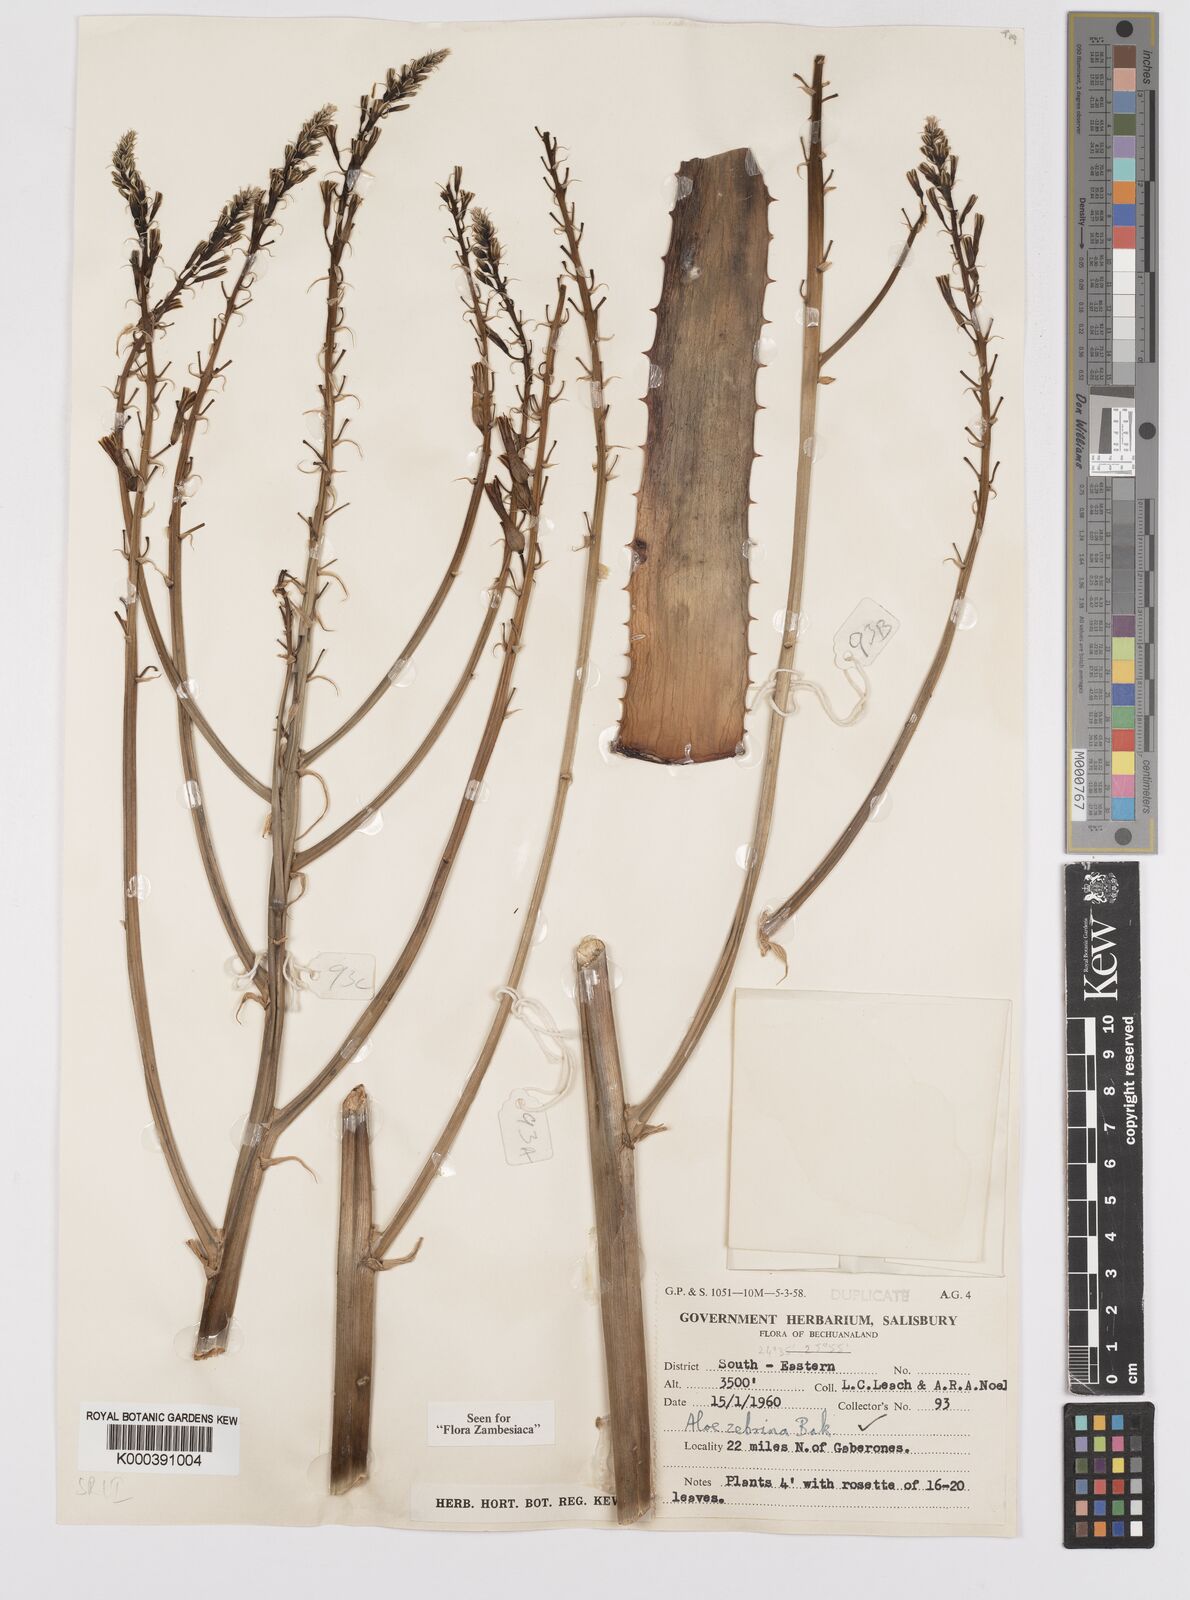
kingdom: Plantae
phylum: Tracheophyta
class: Liliopsida
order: Asparagales
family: Asphodelaceae
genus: Aloe
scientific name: Aloe zebrina
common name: Zebra-leaf aloe
